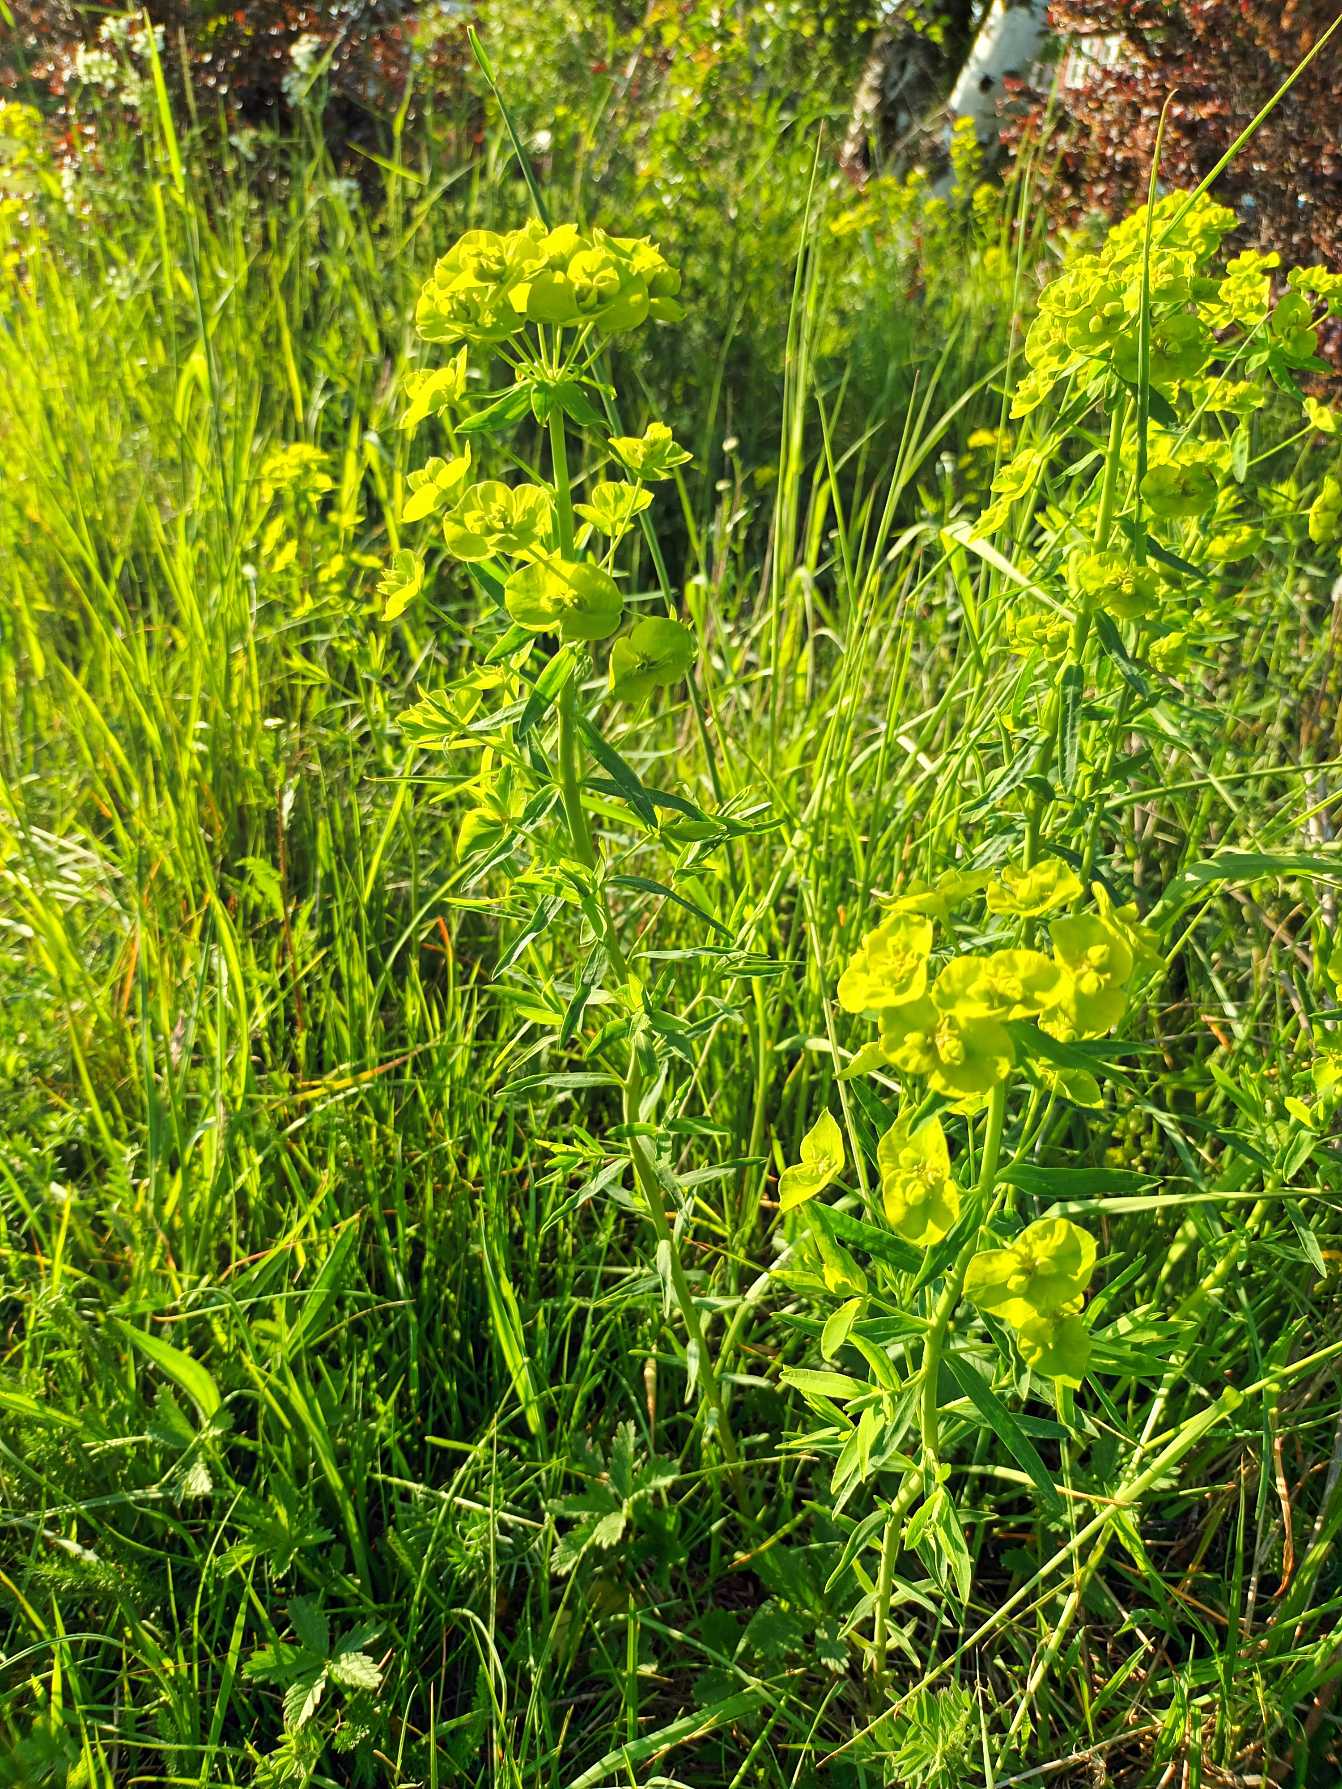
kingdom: Plantae
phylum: Tracheophyta
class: Magnoliopsida
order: Malpighiales
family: Euphorbiaceae
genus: Euphorbia
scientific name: Euphorbia esula
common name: Langbladet vortemælk (underart)
